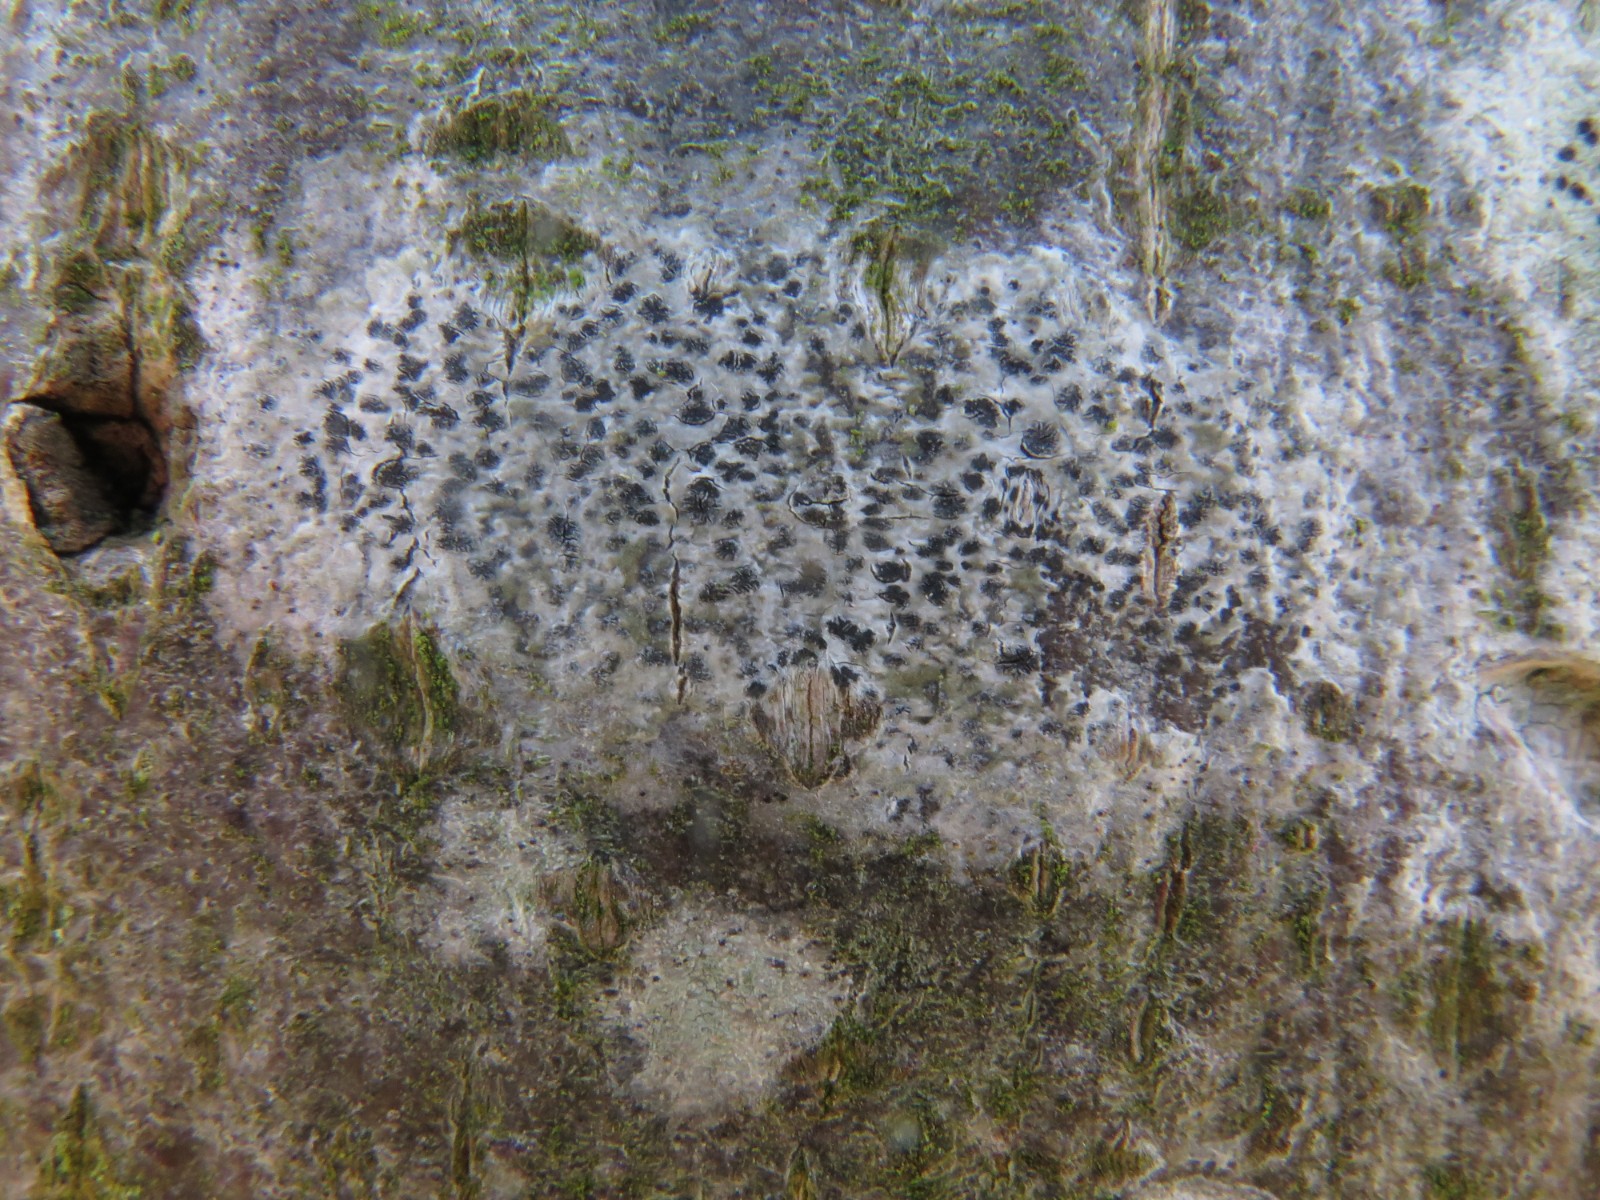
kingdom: Fungi
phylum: Ascomycota
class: Arthoniomycetes
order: Arthoniales
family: Arthoniaceae
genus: Arthonia
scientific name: Arthonia radiata
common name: stjerne-pletlav
